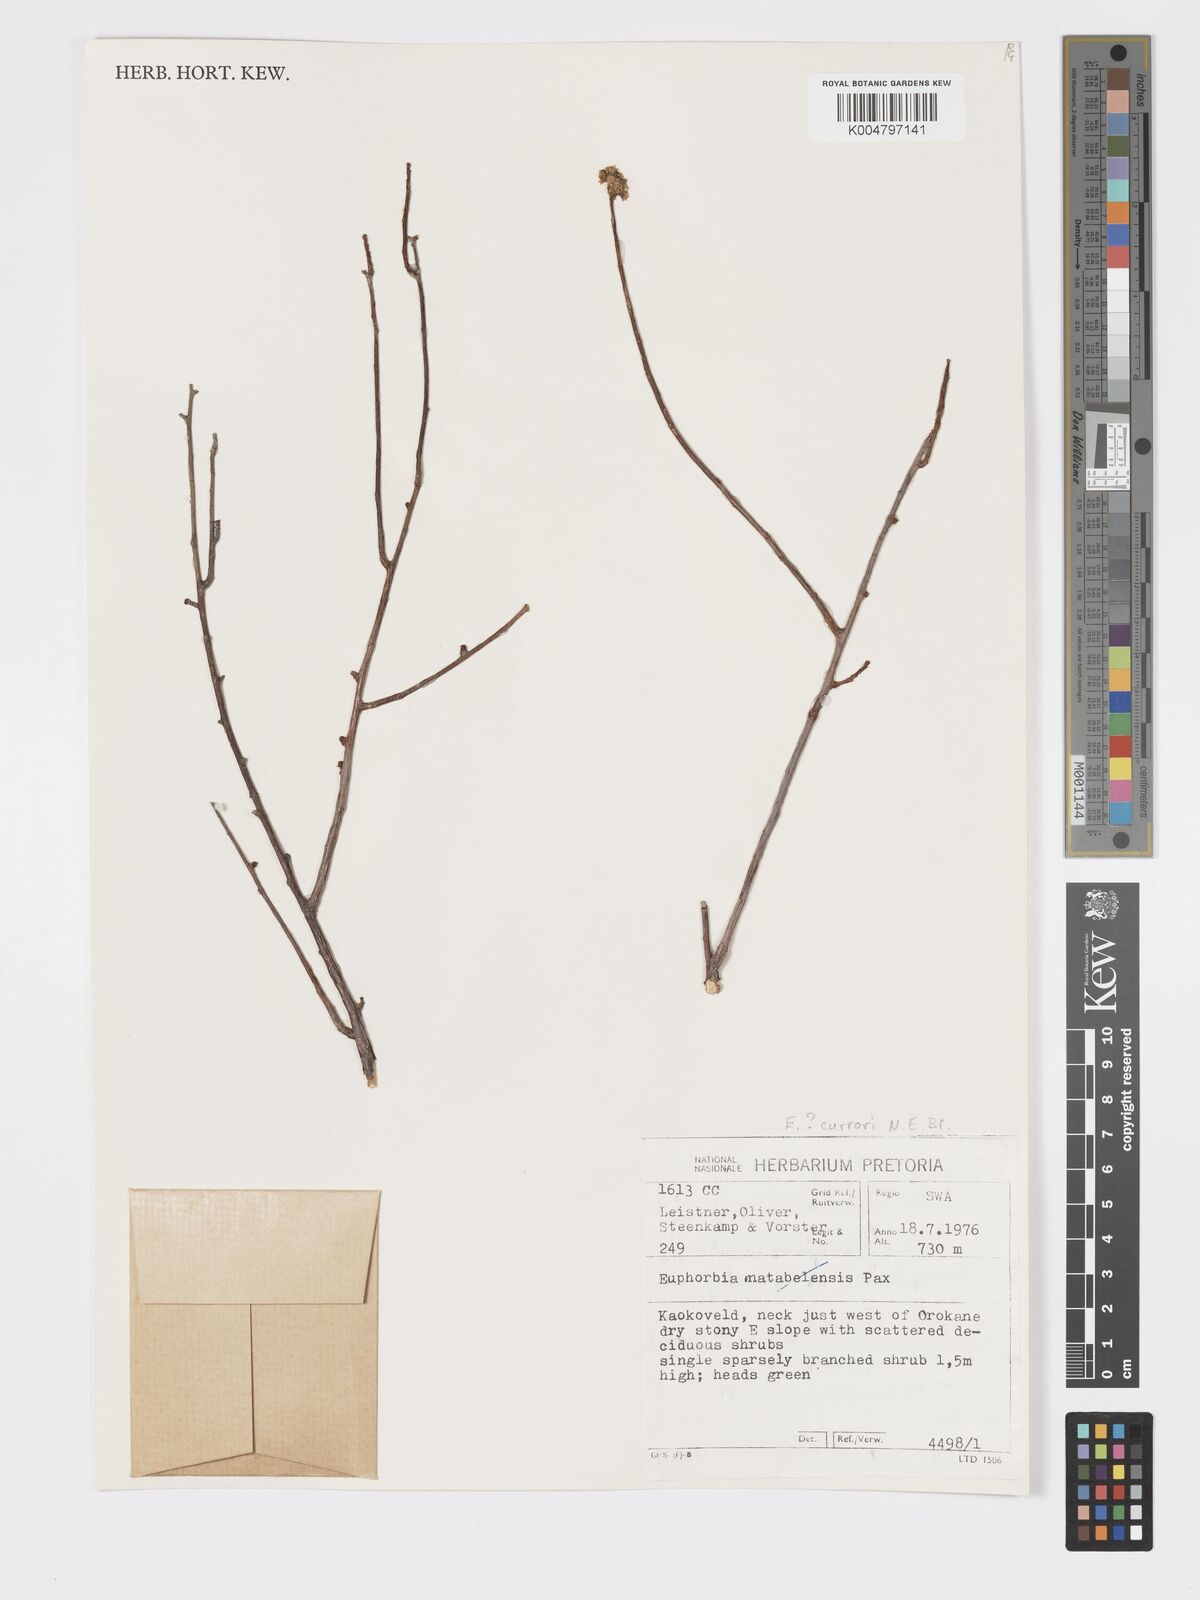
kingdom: Plantae
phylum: Tracheophyta
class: Magnoliopsida
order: Malpighiales
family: Euphorbiaceae
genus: Euphorbia
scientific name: Euphorbia
